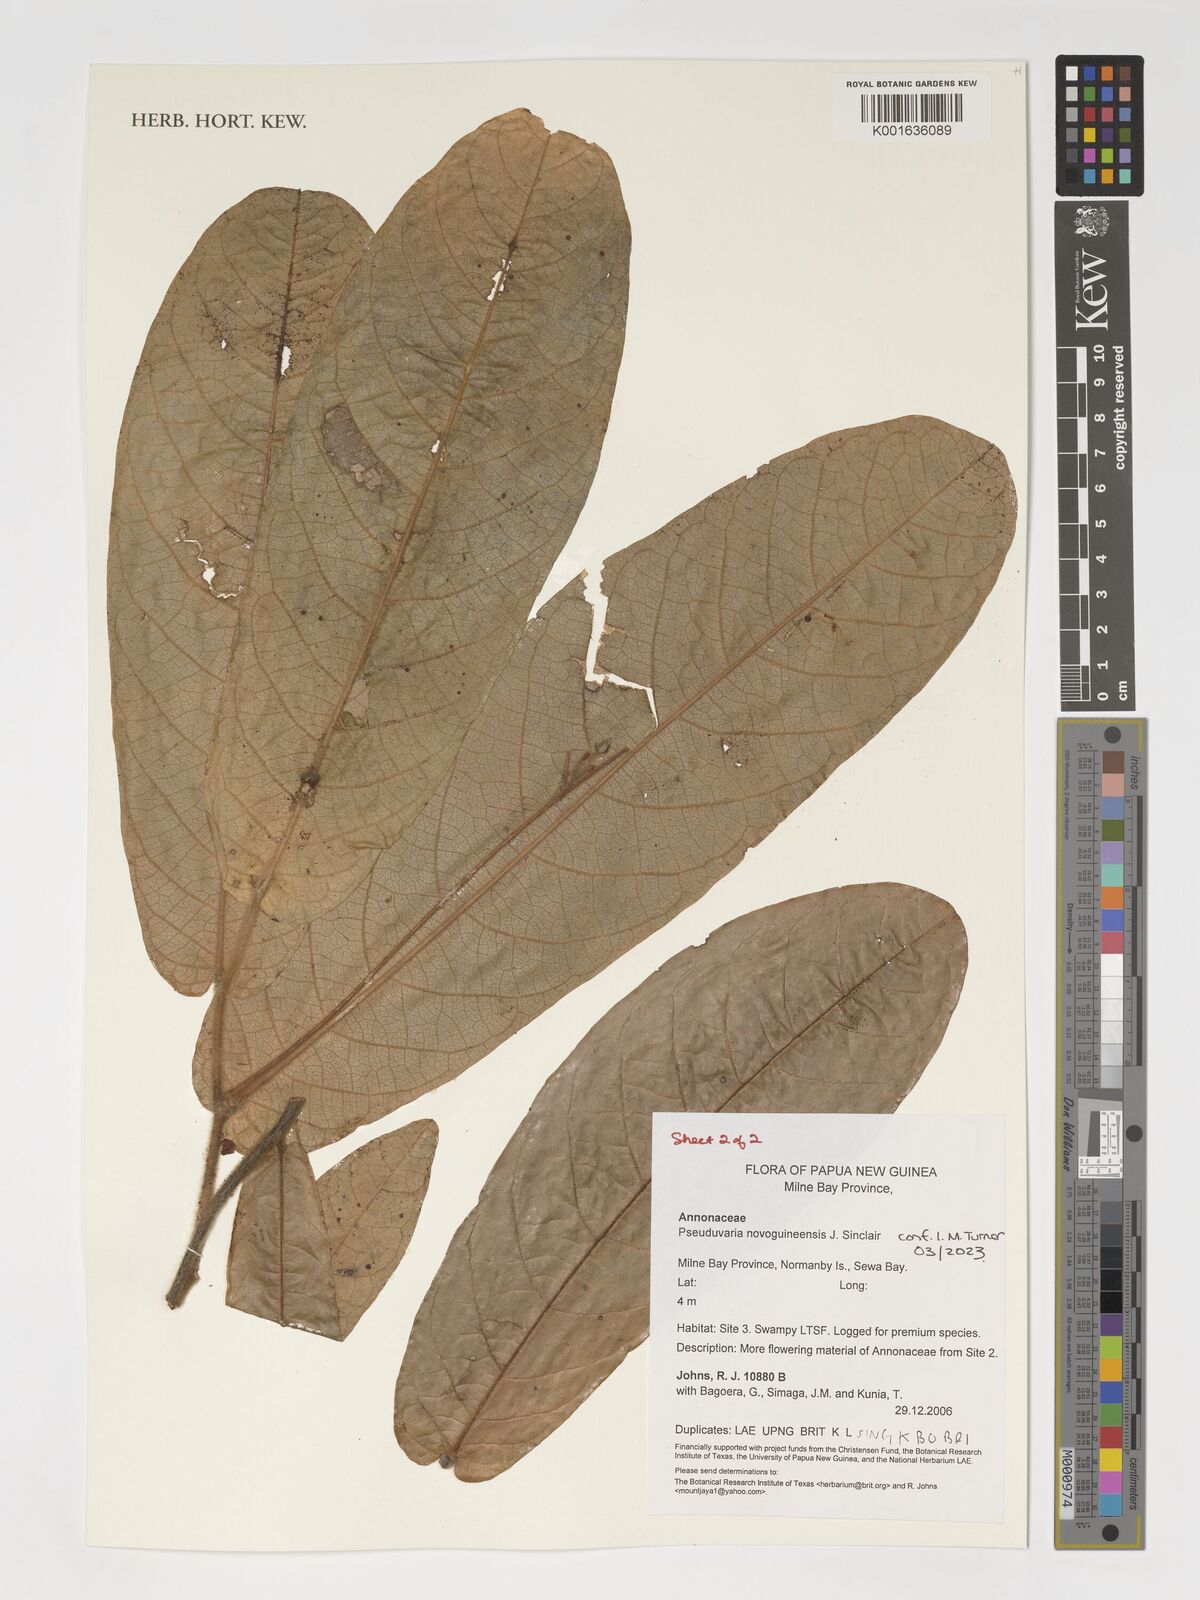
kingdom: Plantae
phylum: Tracheophyta
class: Magnoliopsida
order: Magnoliales
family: Annonaceae
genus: Pseuduvaria
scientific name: Pseuduvaria nova-guineensis
